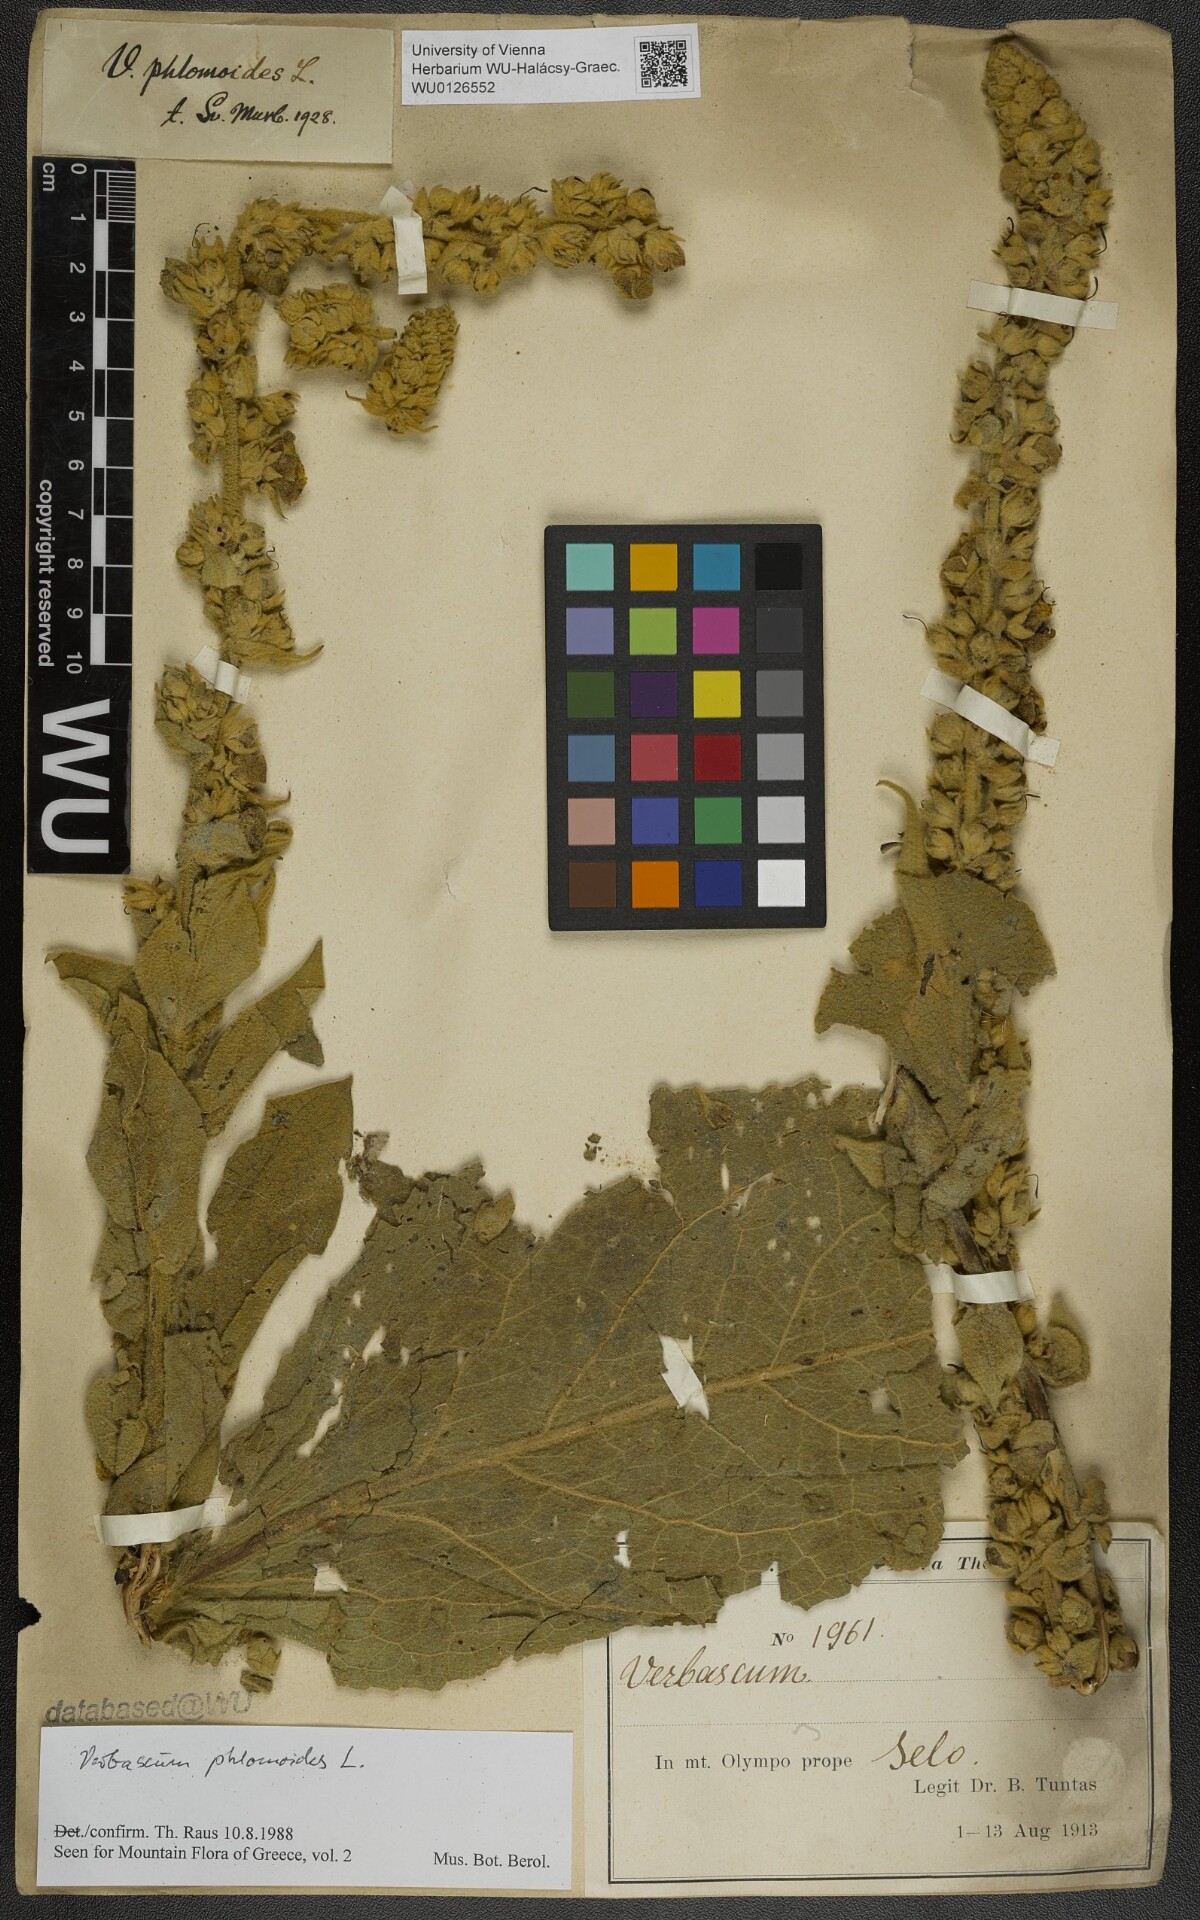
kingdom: Plantae
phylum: Tracheophyta
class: Magnoliopsida
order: Lamiales
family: Scrophulariaceae
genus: Verbascum
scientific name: Verbascum phlomoides
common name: Orange mullein
